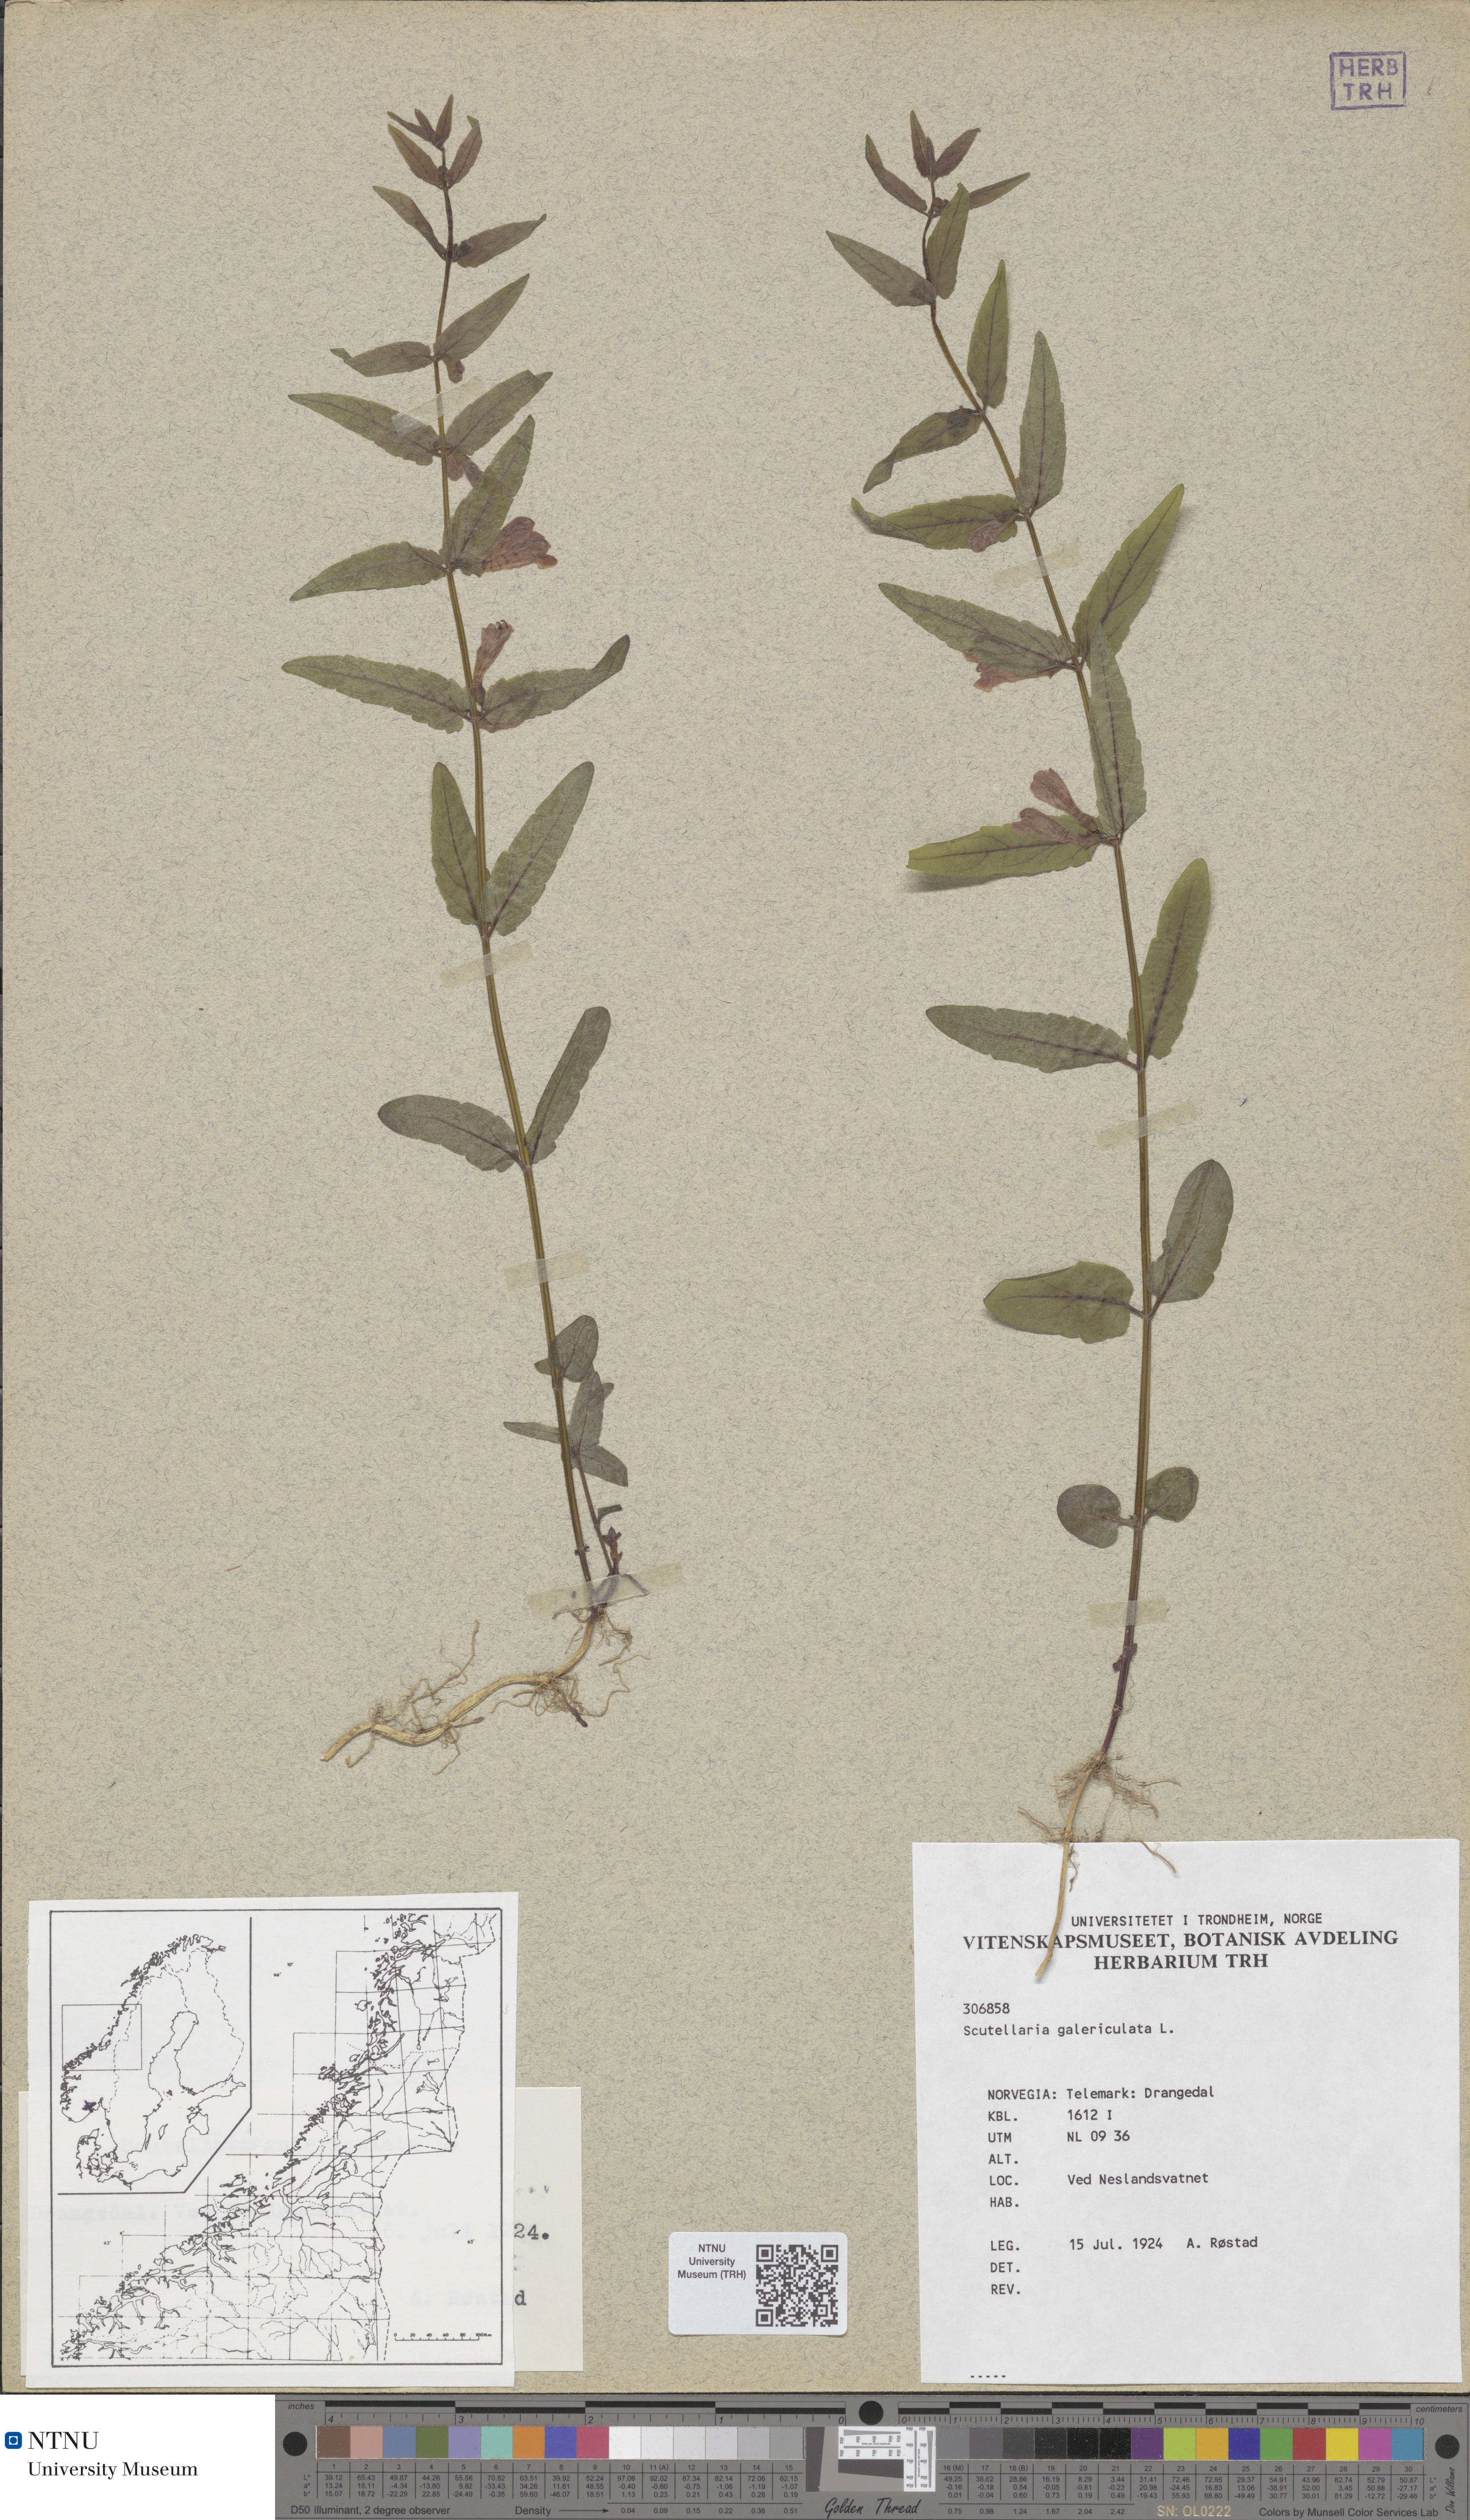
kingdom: Plantae
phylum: Tracheophyta
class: Magnoliopsida
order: Lamiales
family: Lamiaceae
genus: Scutellaria
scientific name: Scutellaria galericulata
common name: Skullcap
